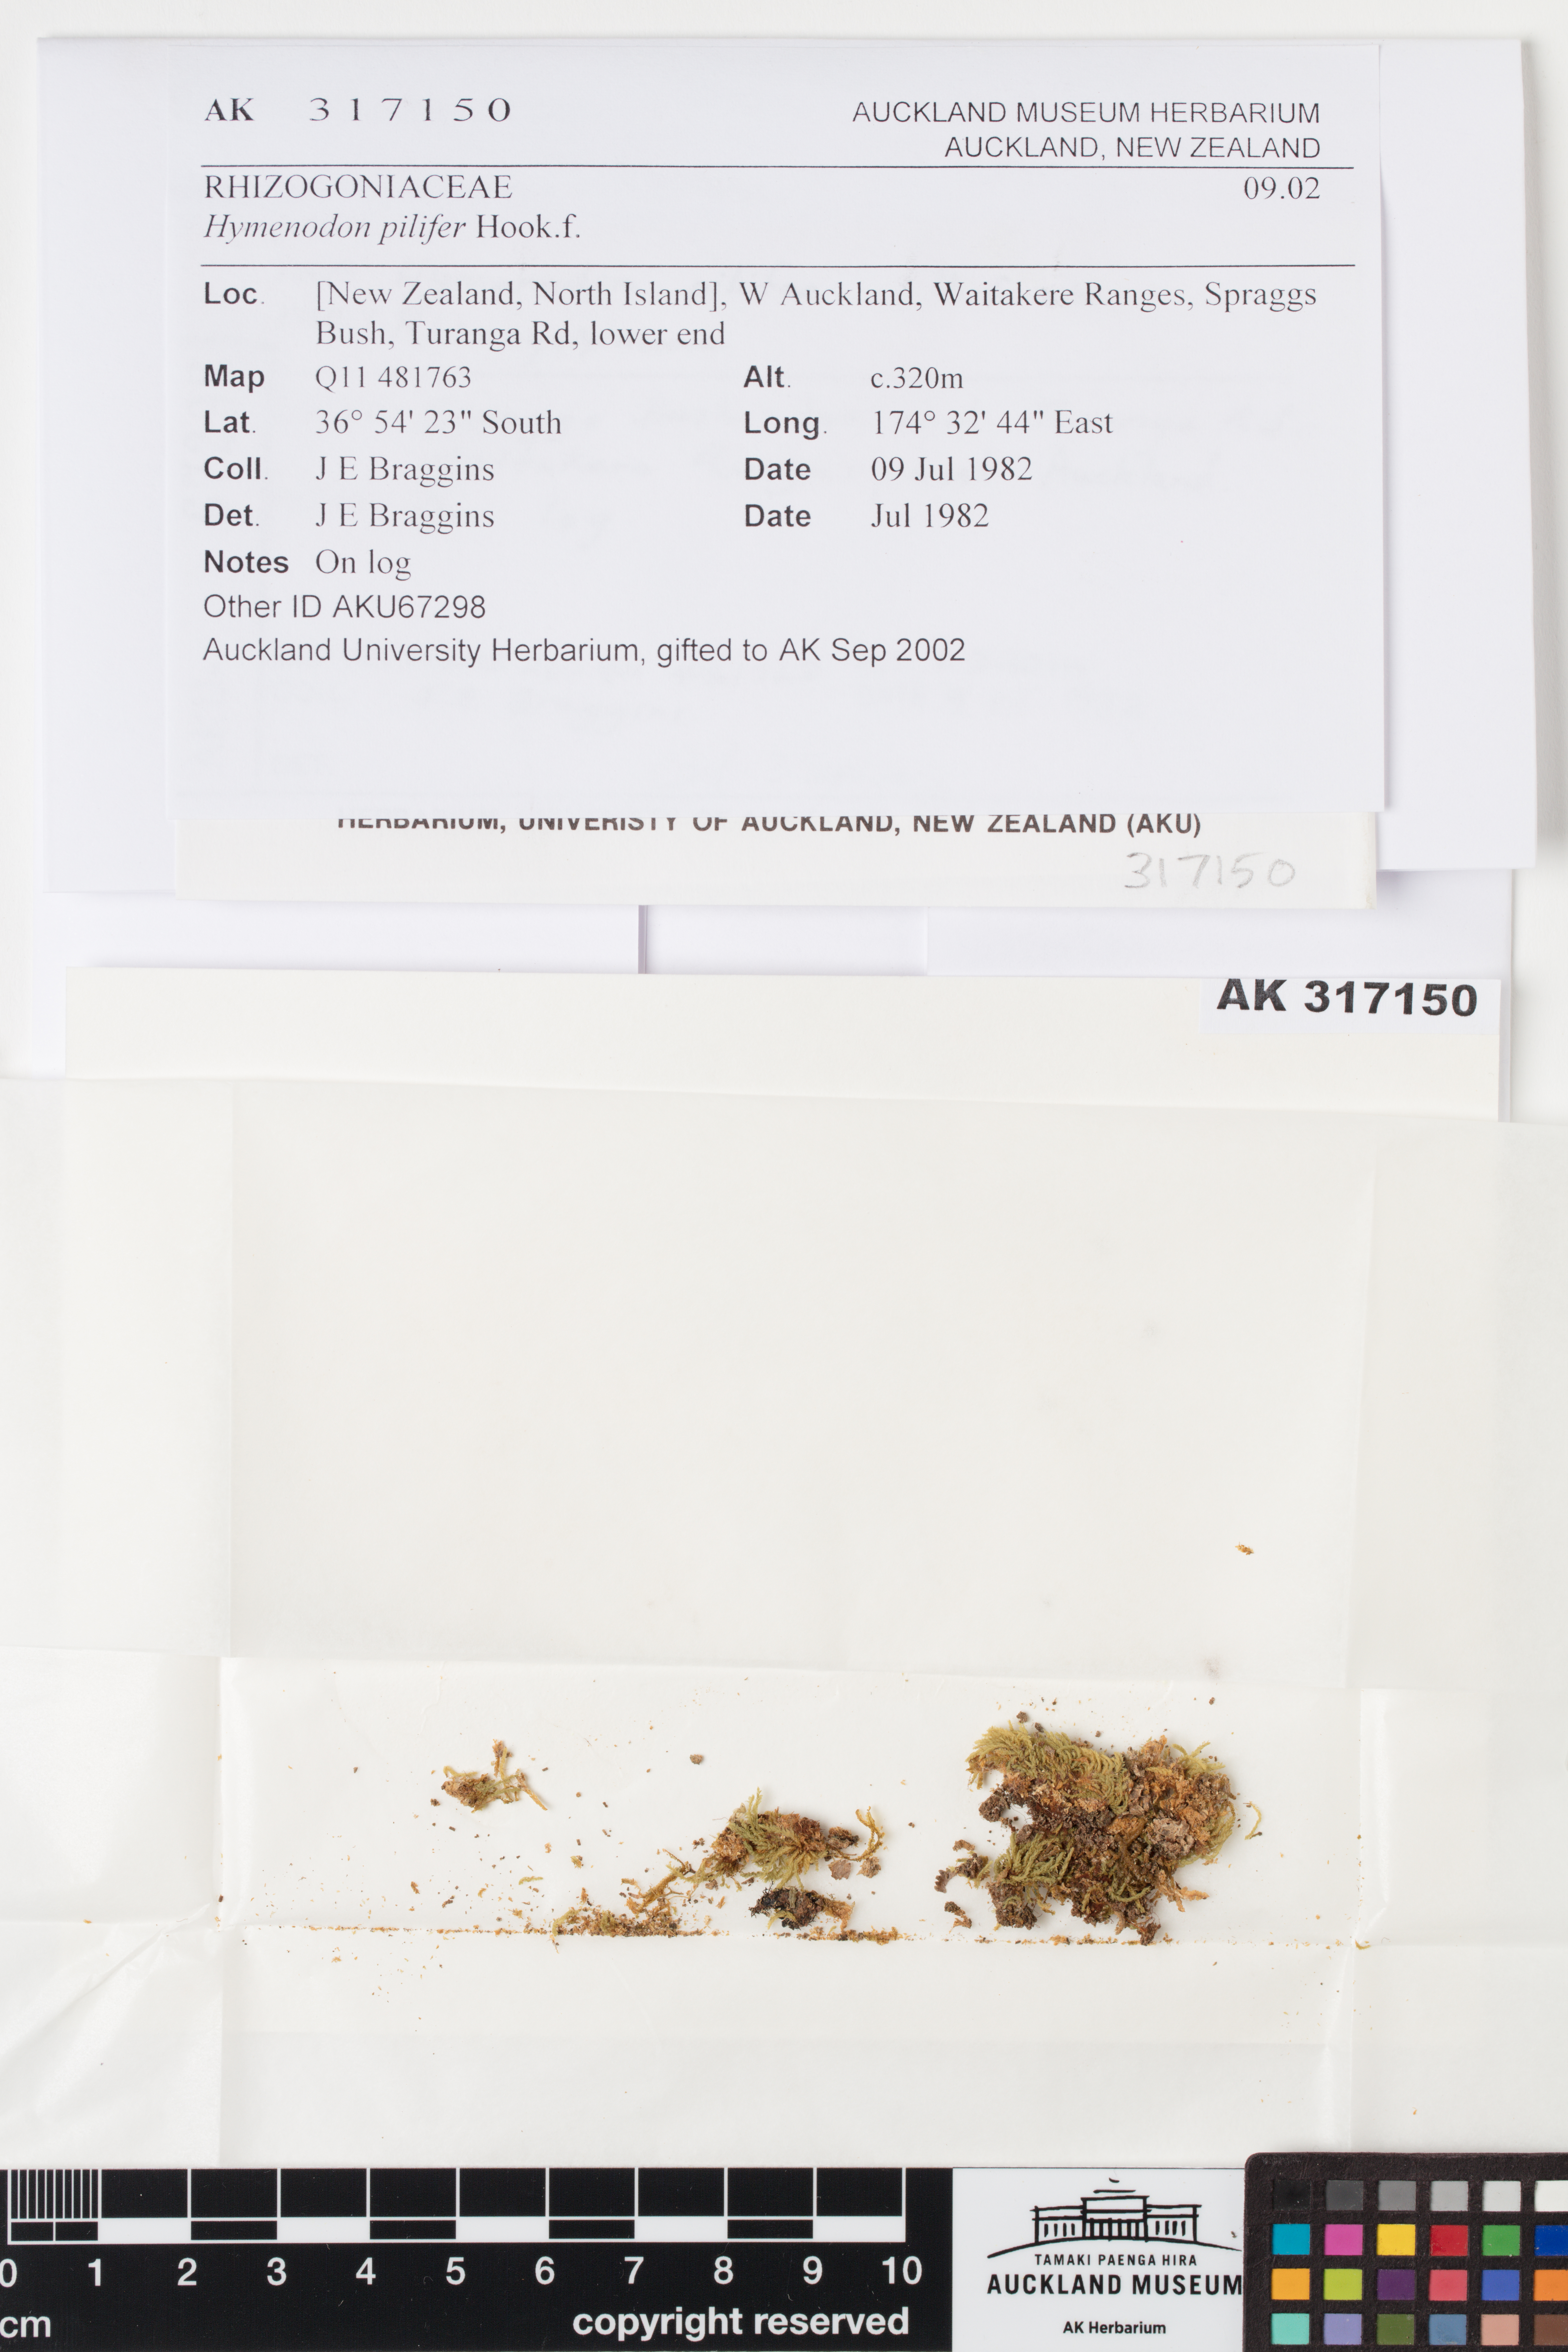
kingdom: Plantae
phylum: Bryophyta
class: Bryopsida
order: Orthodontiales
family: Orthodontiaceae
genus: Hymenodon
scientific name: Hymenodon pilifer
